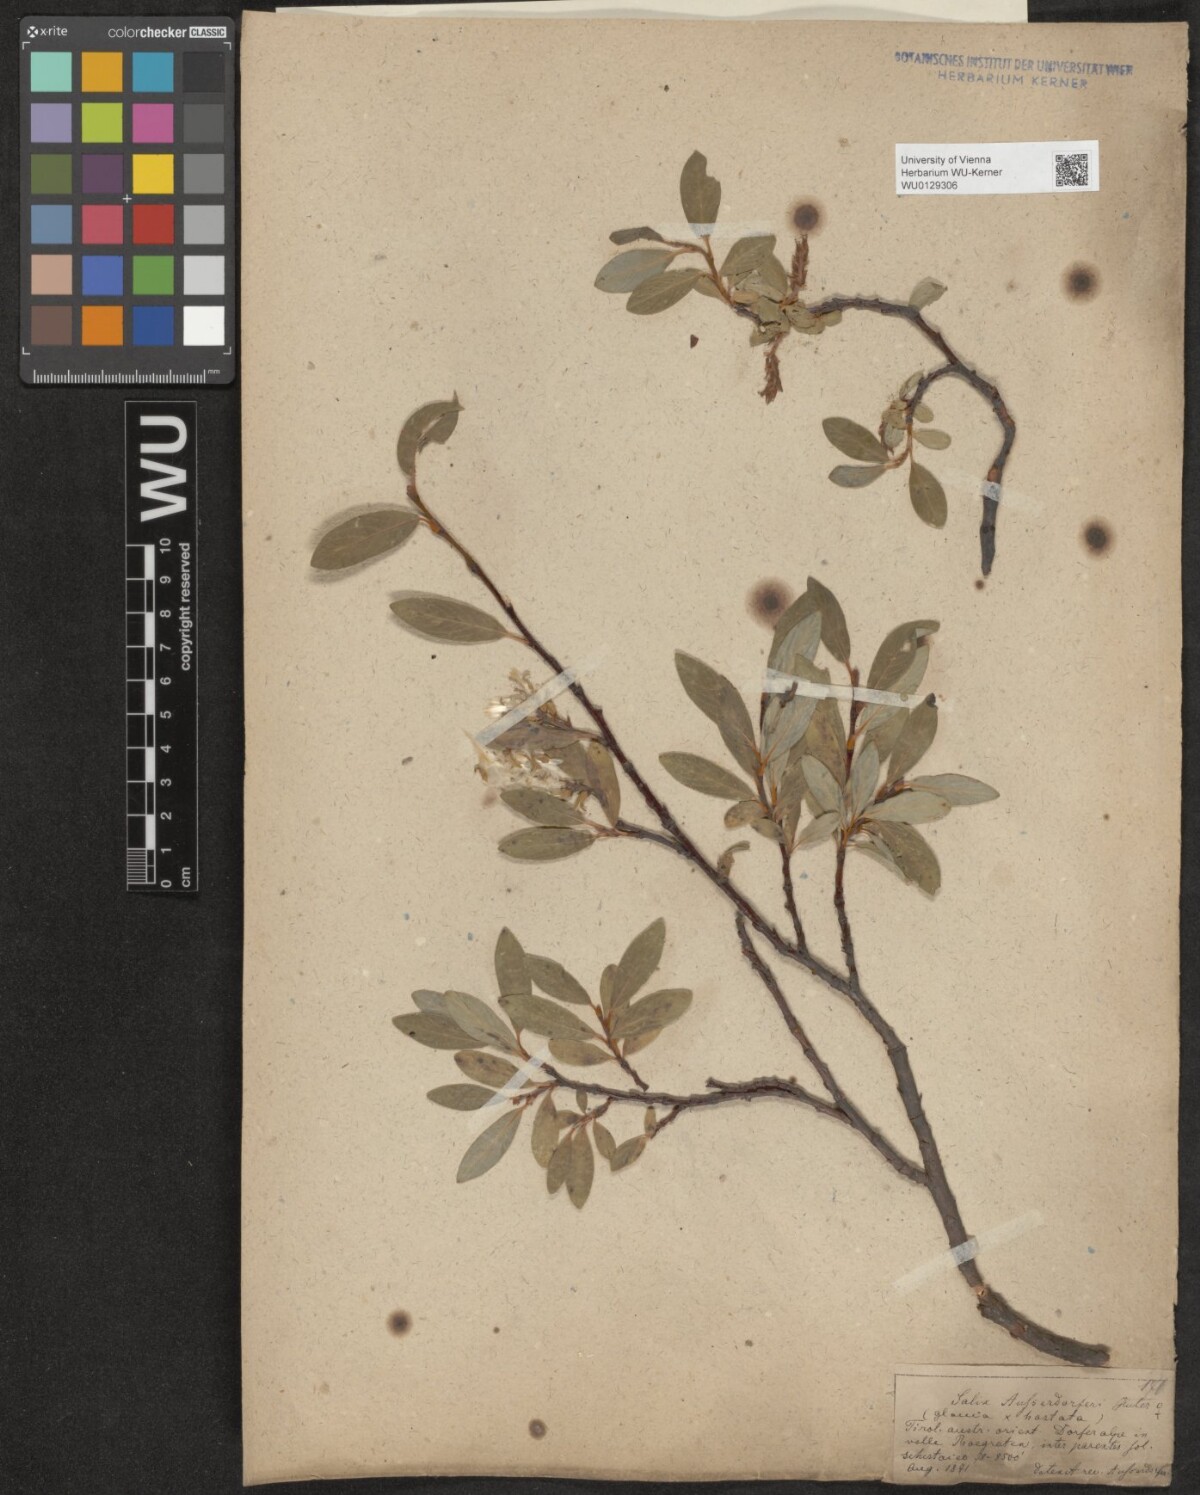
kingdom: Plantae
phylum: Tracheophyta
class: Magnoliopsida
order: Malpighiales
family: Salicaceae
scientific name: Salicaceae
